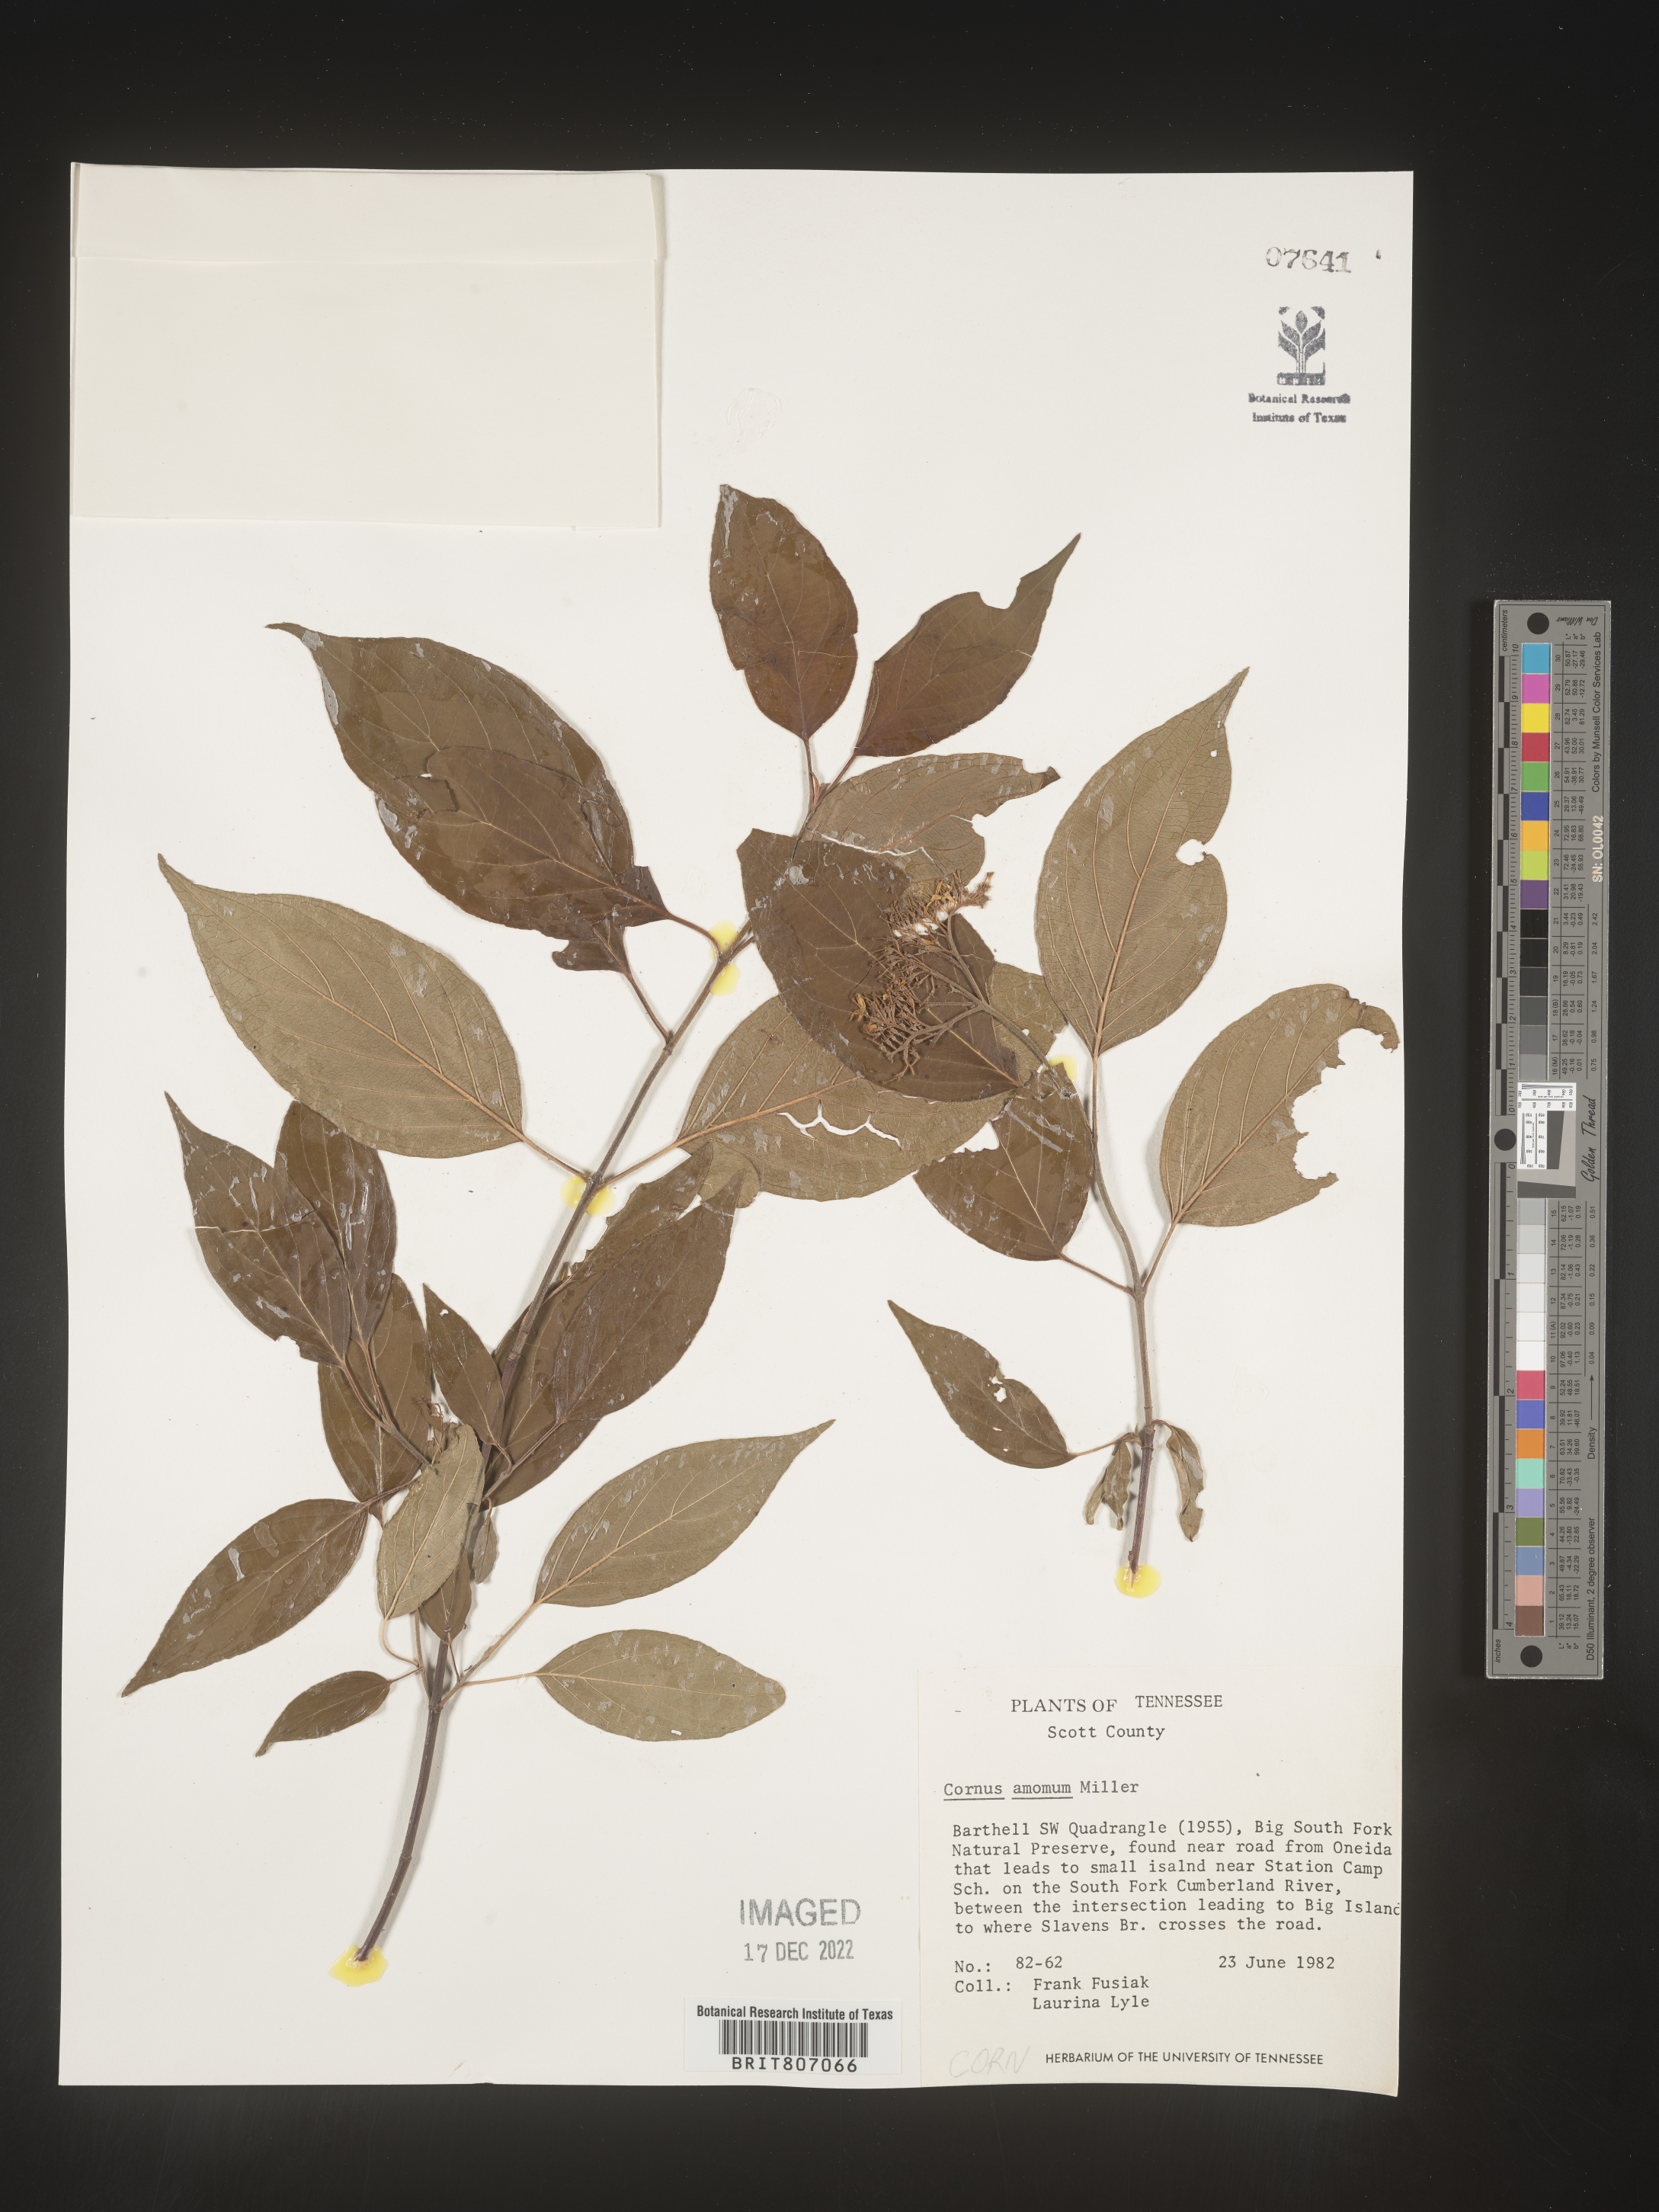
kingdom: Plantae
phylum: Tracheophyta
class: Magnoliopsida
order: Cornales
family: Cornaceae
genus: Cornus
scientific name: Cornus amomum
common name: Silky dogwood
